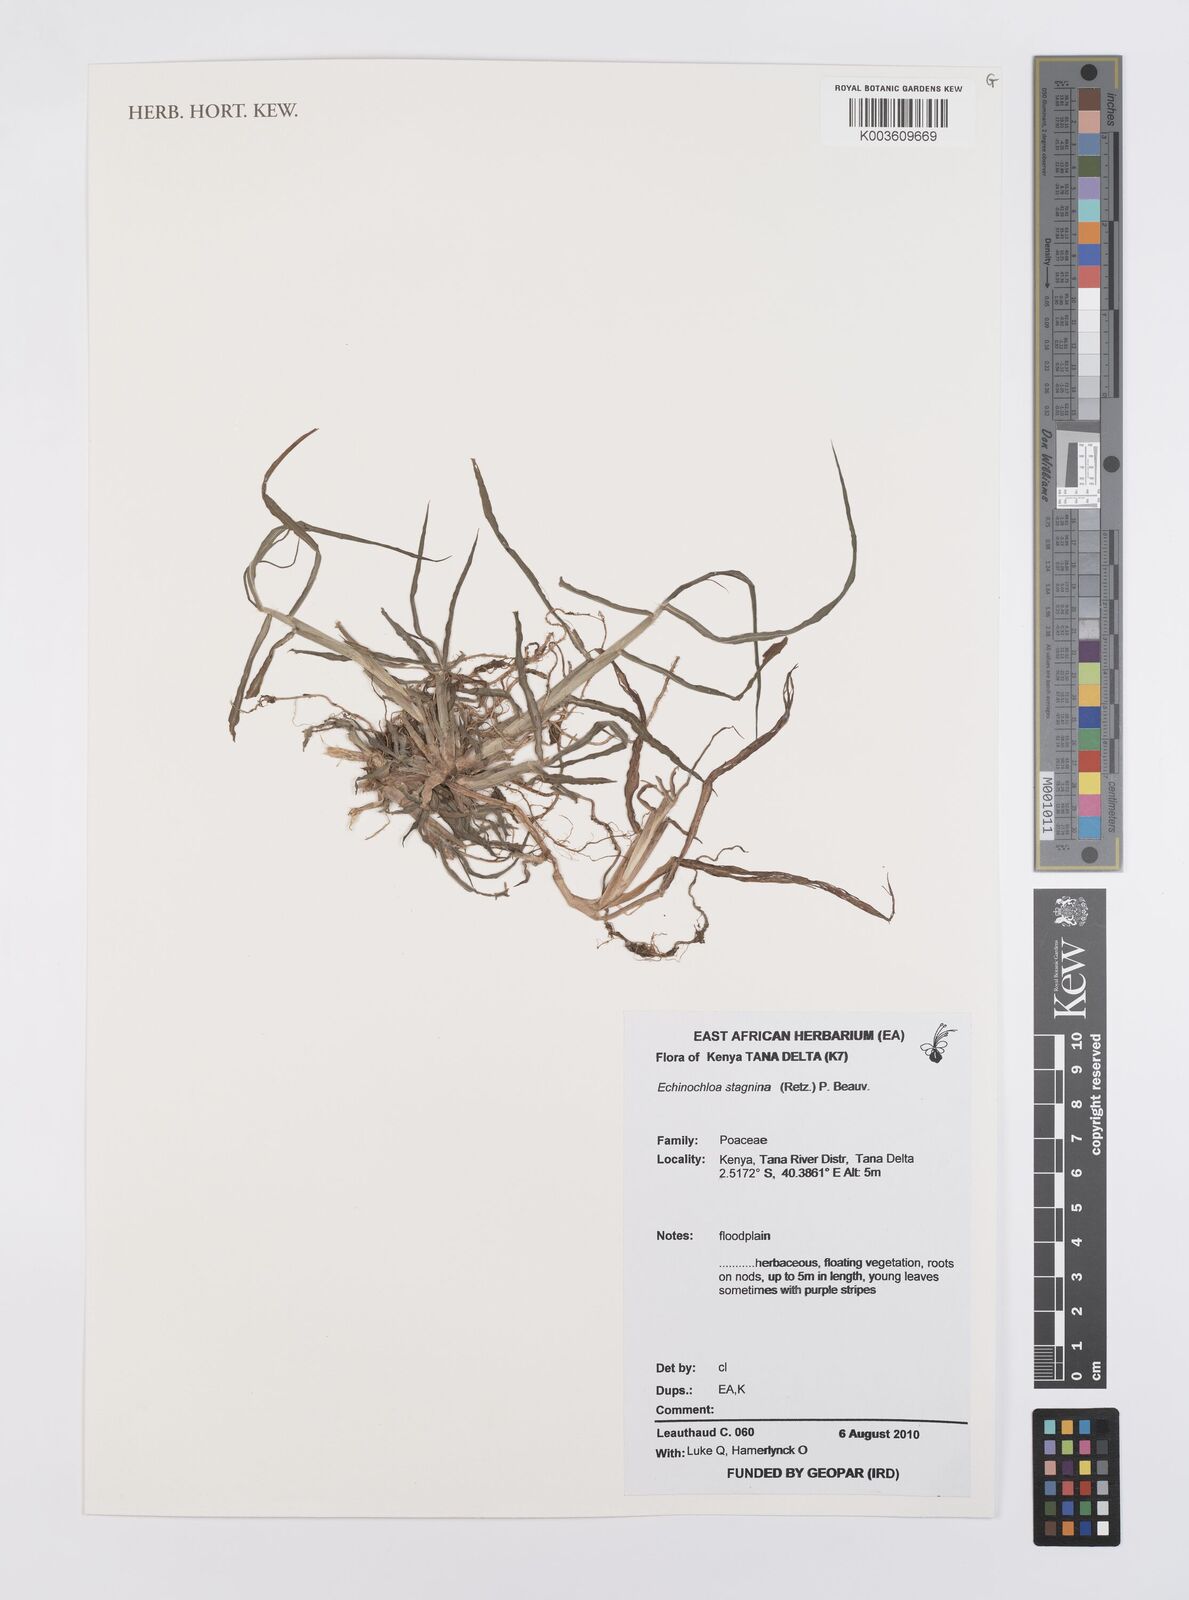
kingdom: Plantae
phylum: Tracheophyta
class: Liliopsida
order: Poales
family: Poaceae
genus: Echinochloa
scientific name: Echinochloa stagnina
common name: Burgu grass
